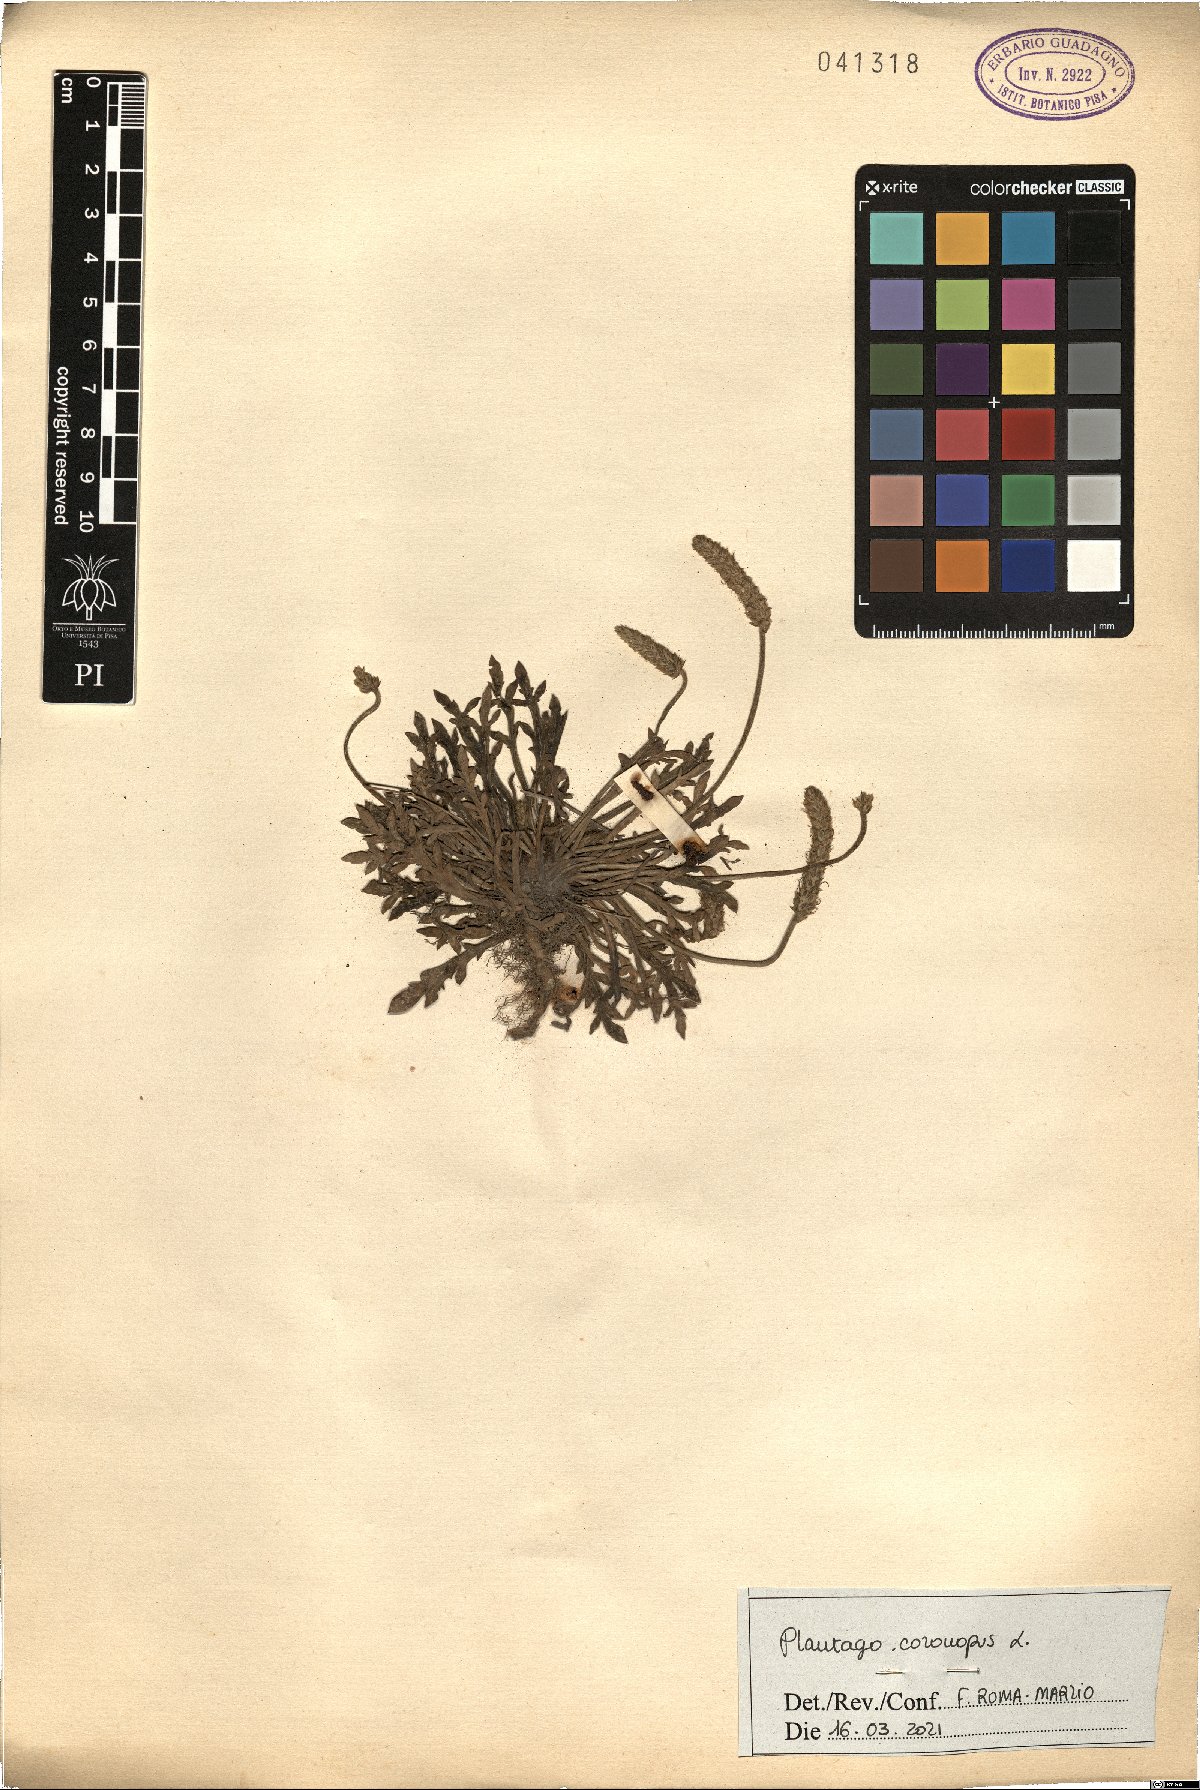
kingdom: Plantae
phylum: Tracheophyta
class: Magnoliopsida
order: Lamiales
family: Plantaginaceae
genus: Plantago
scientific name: Plantago coronopus
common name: Buck's-horn plantain
